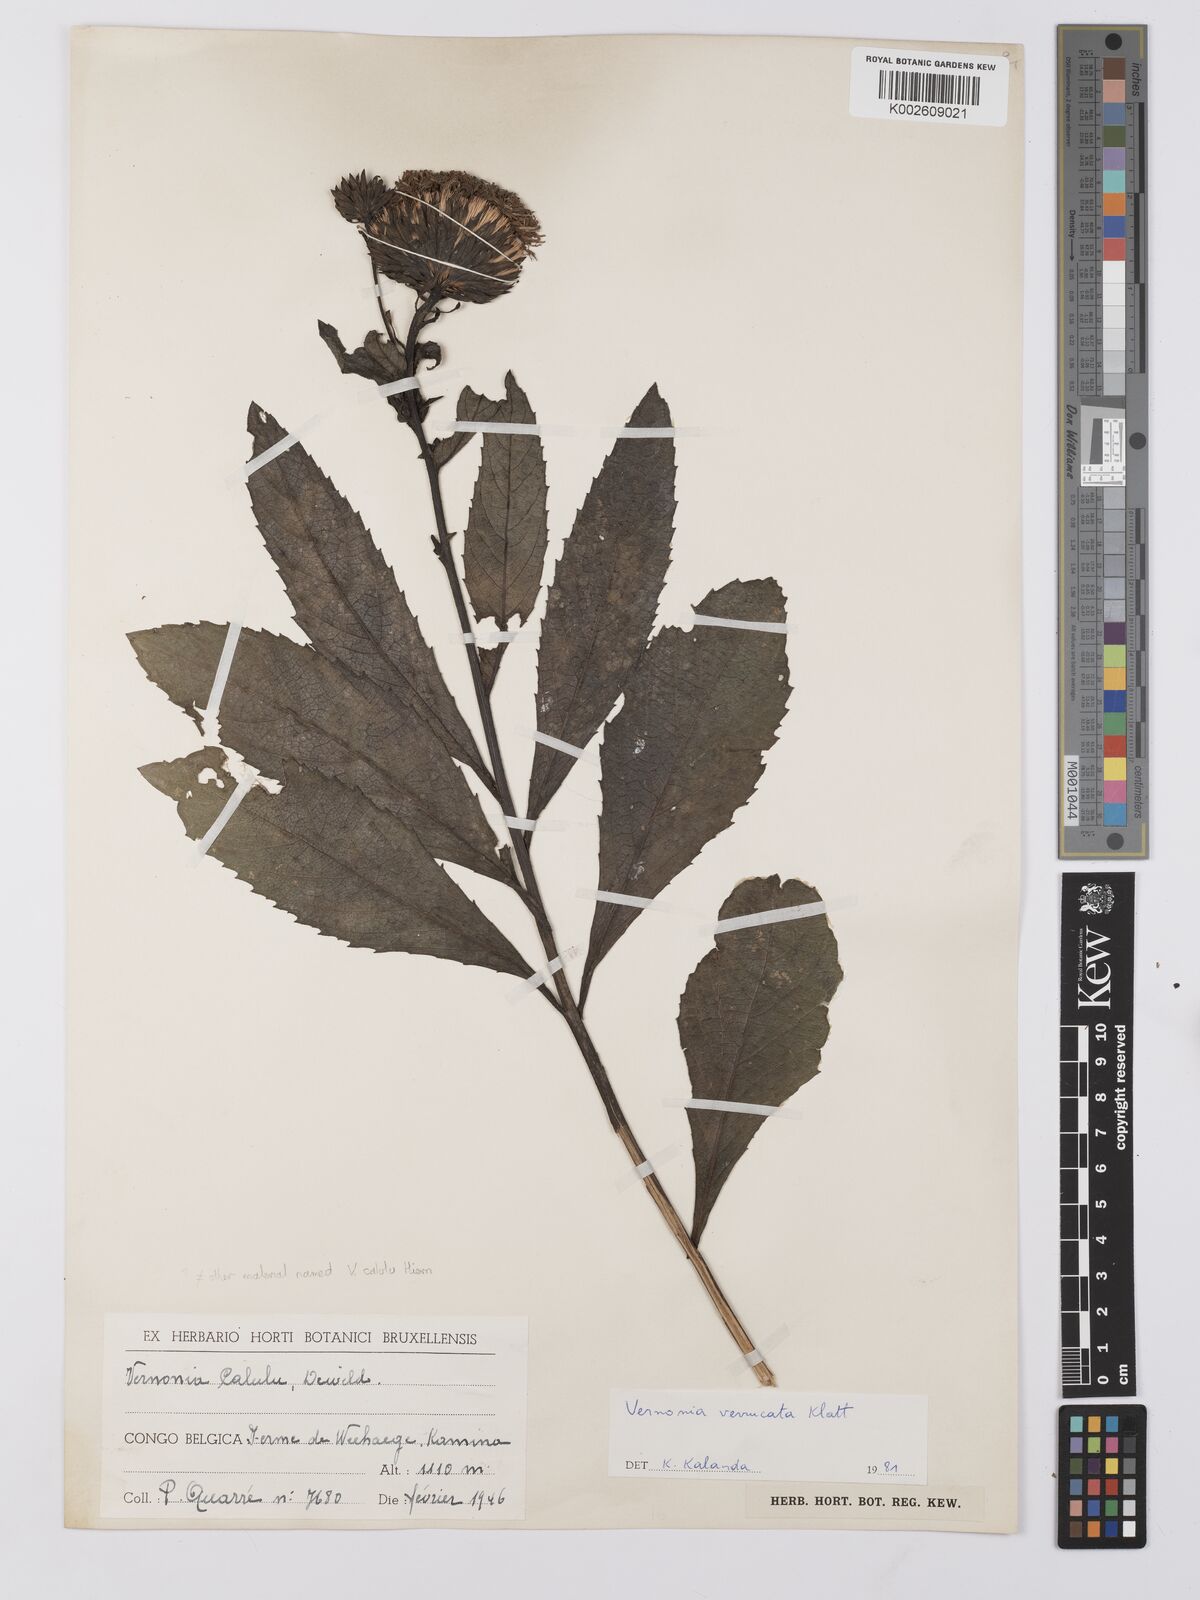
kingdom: Plantae
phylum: Tracheophyta
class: Magnoliopsida
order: Asterales
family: Asteraceae
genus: Vernonia
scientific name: Vernonia verrucosa
